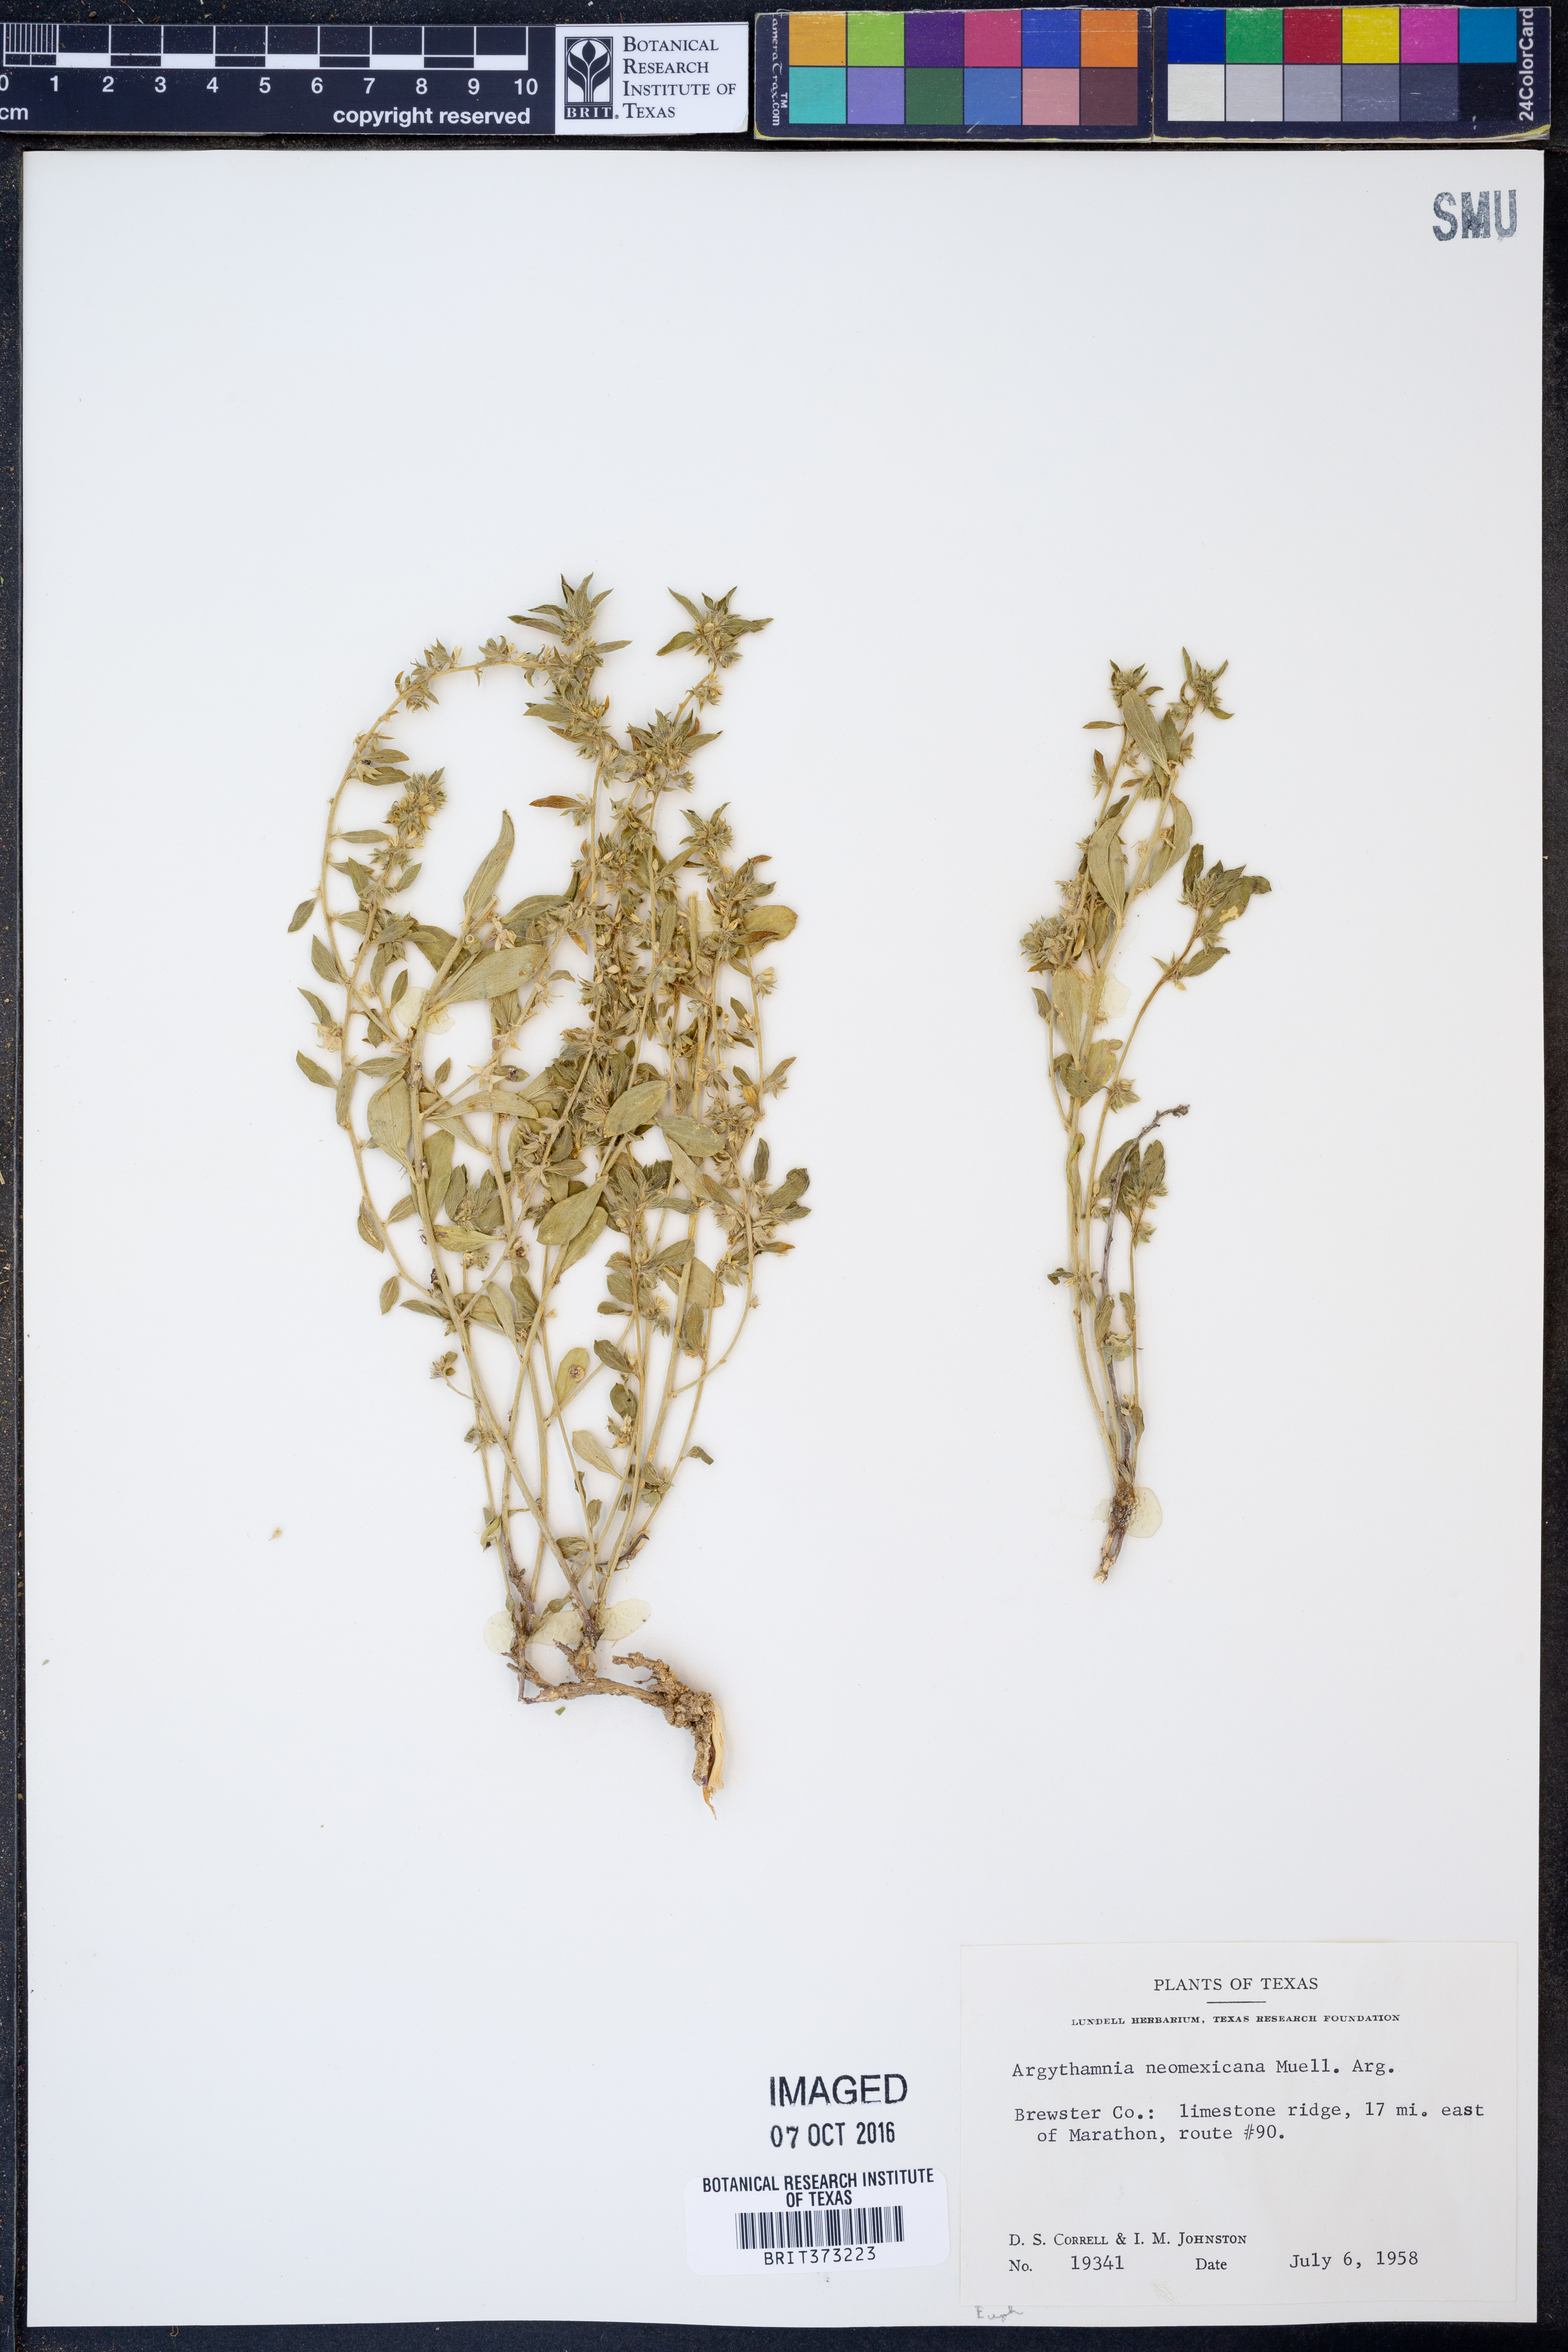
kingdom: Plantae
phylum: Tracheophyta
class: Magnoliopsida
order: Malpighiales
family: Euphorbiaceae
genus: Ditaxis
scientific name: Ditaxis serrata
